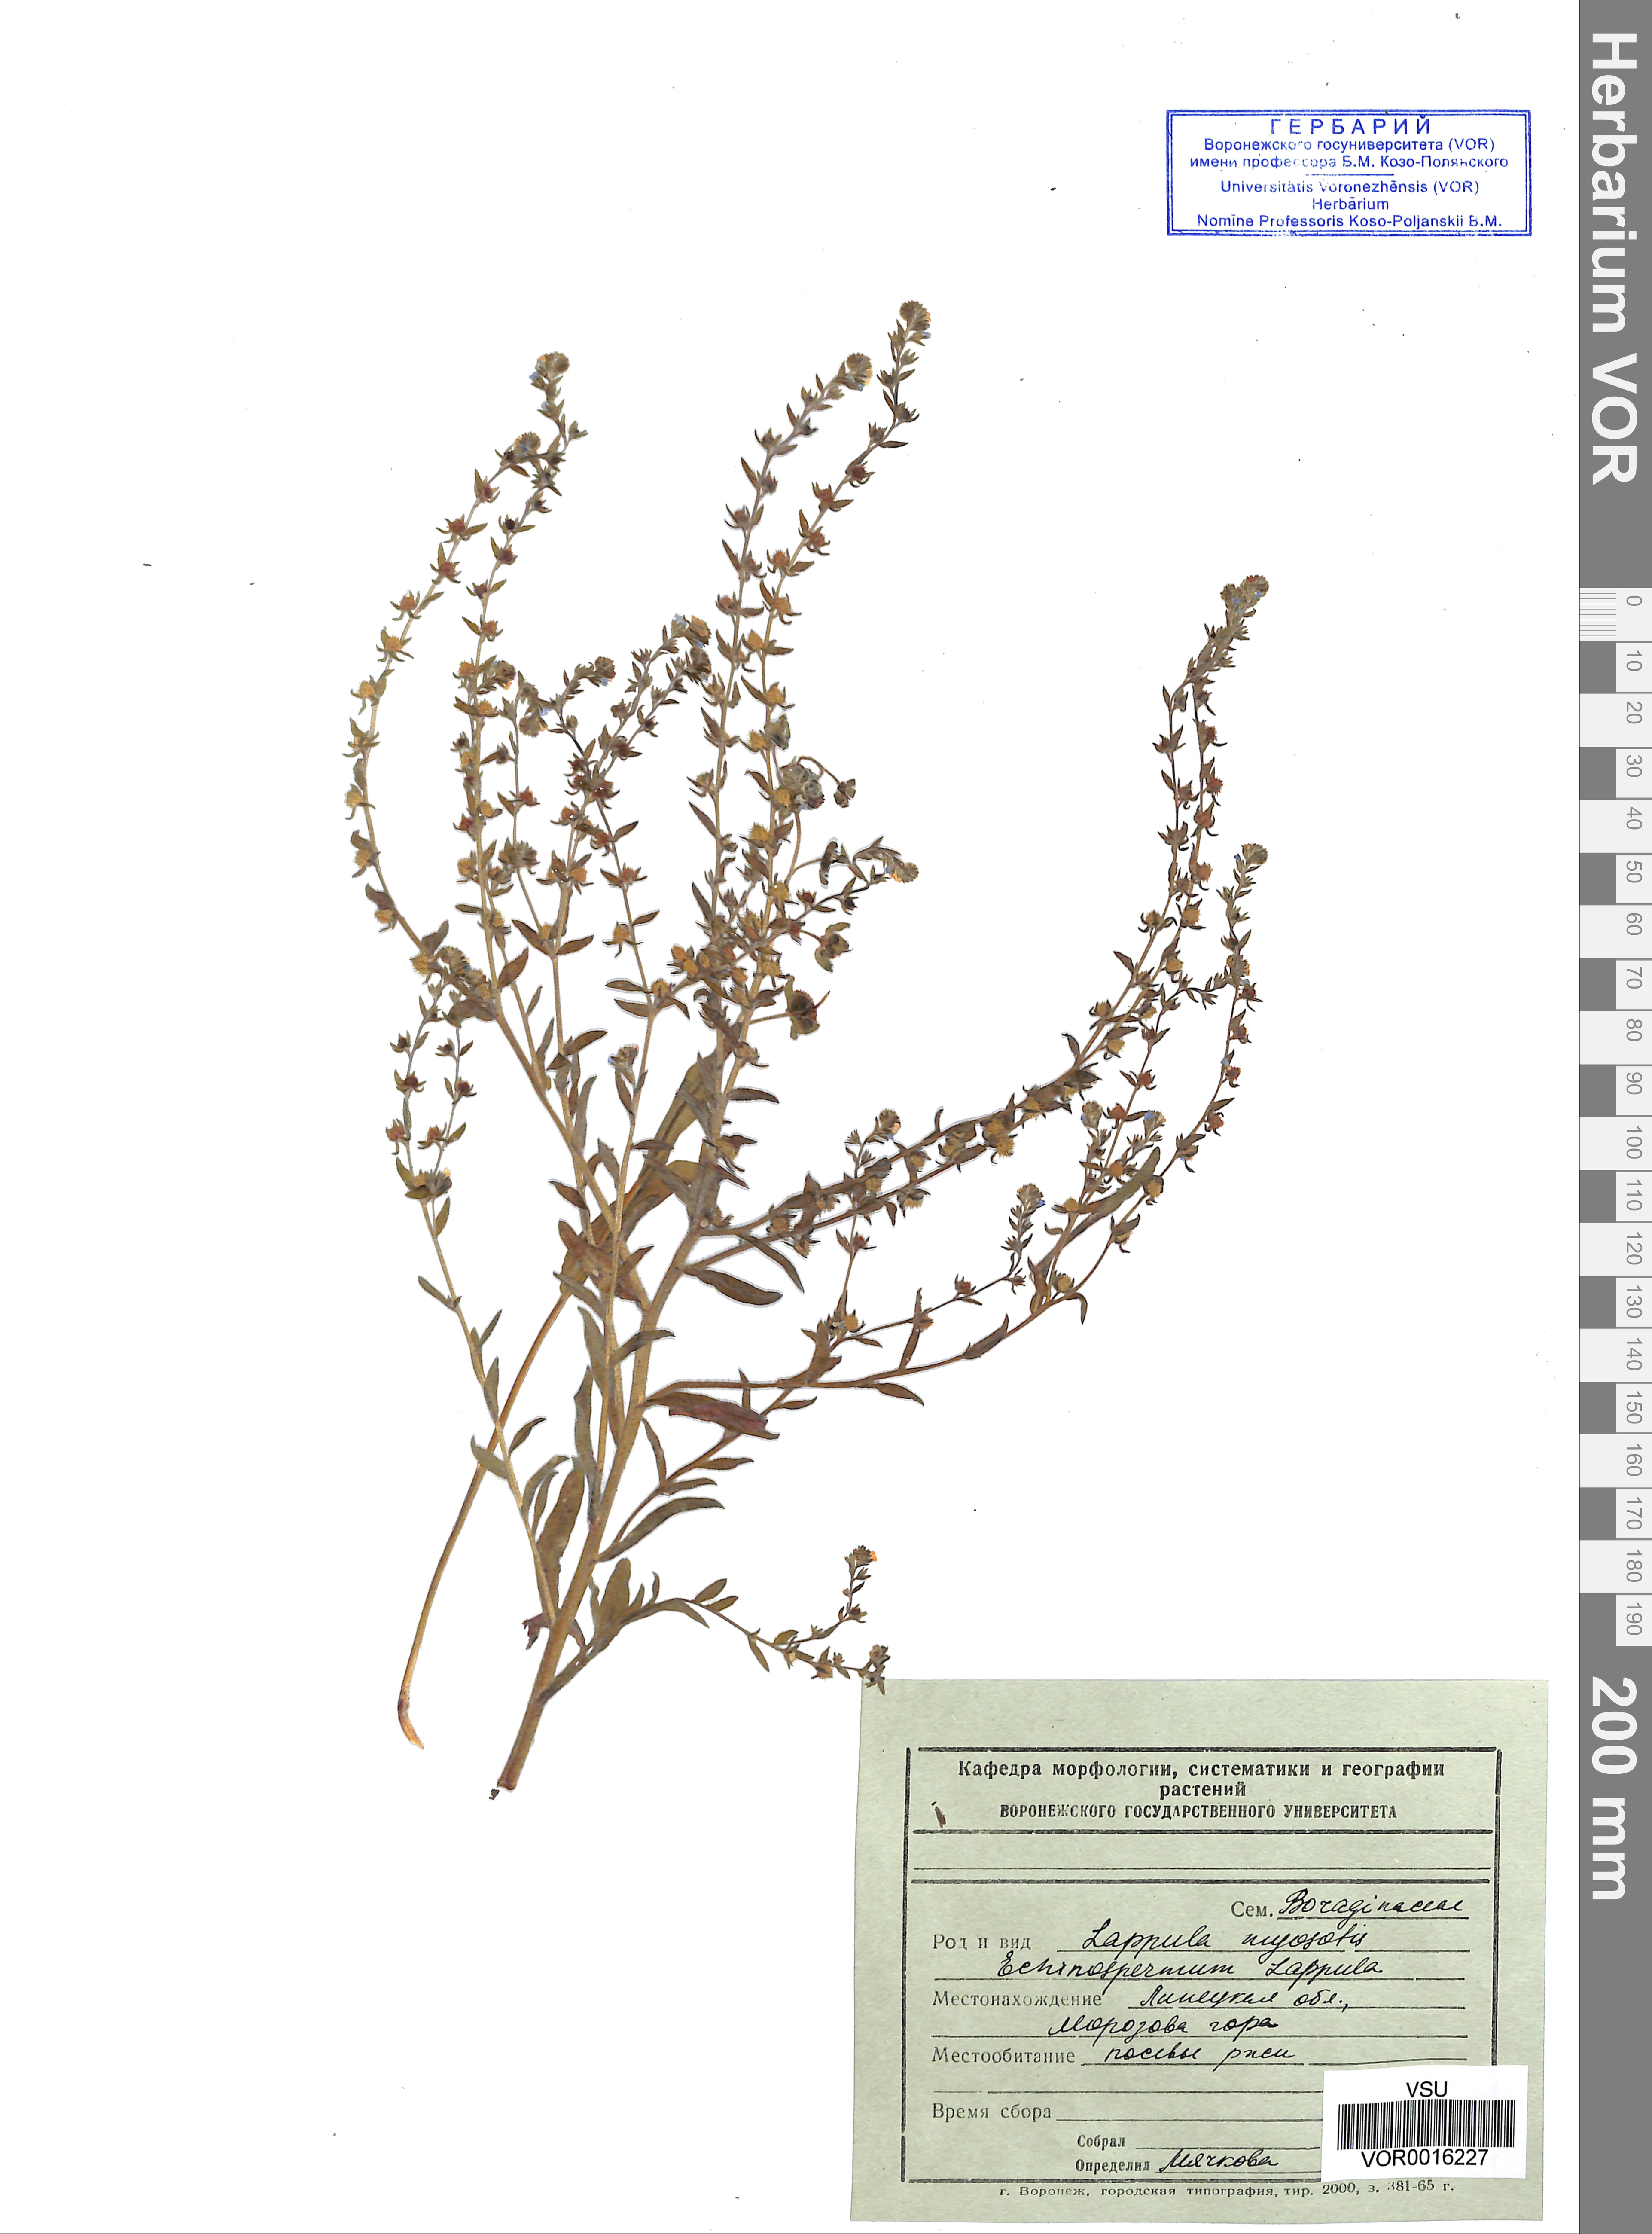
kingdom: Plantae
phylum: Tracheophyta
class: Magnoliopsida
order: Boraginales
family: Boraginaceae
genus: Lappula
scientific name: Lappula squarrosa
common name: European stickseed
